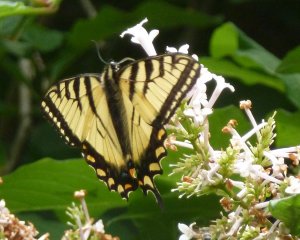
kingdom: Animalia
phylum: Arthropoda
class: Insecta
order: Lepidoptera
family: Papilionidae
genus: Pterourus
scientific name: Pterourus canadensis
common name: Canadian Tiger Swallowtail
